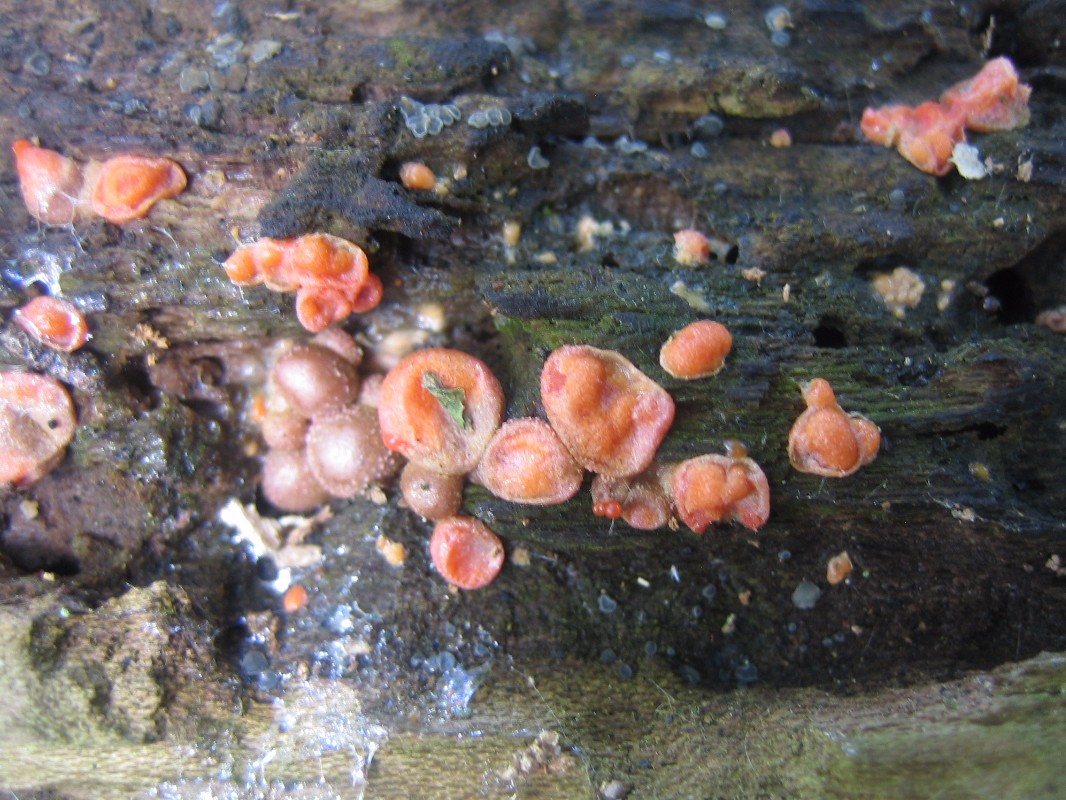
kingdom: Protozoa
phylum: Mycetozoa
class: Myxomycetes
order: Cribrariales
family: Tubiferaceae
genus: Lycogala
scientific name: Lycogala epidendrum
